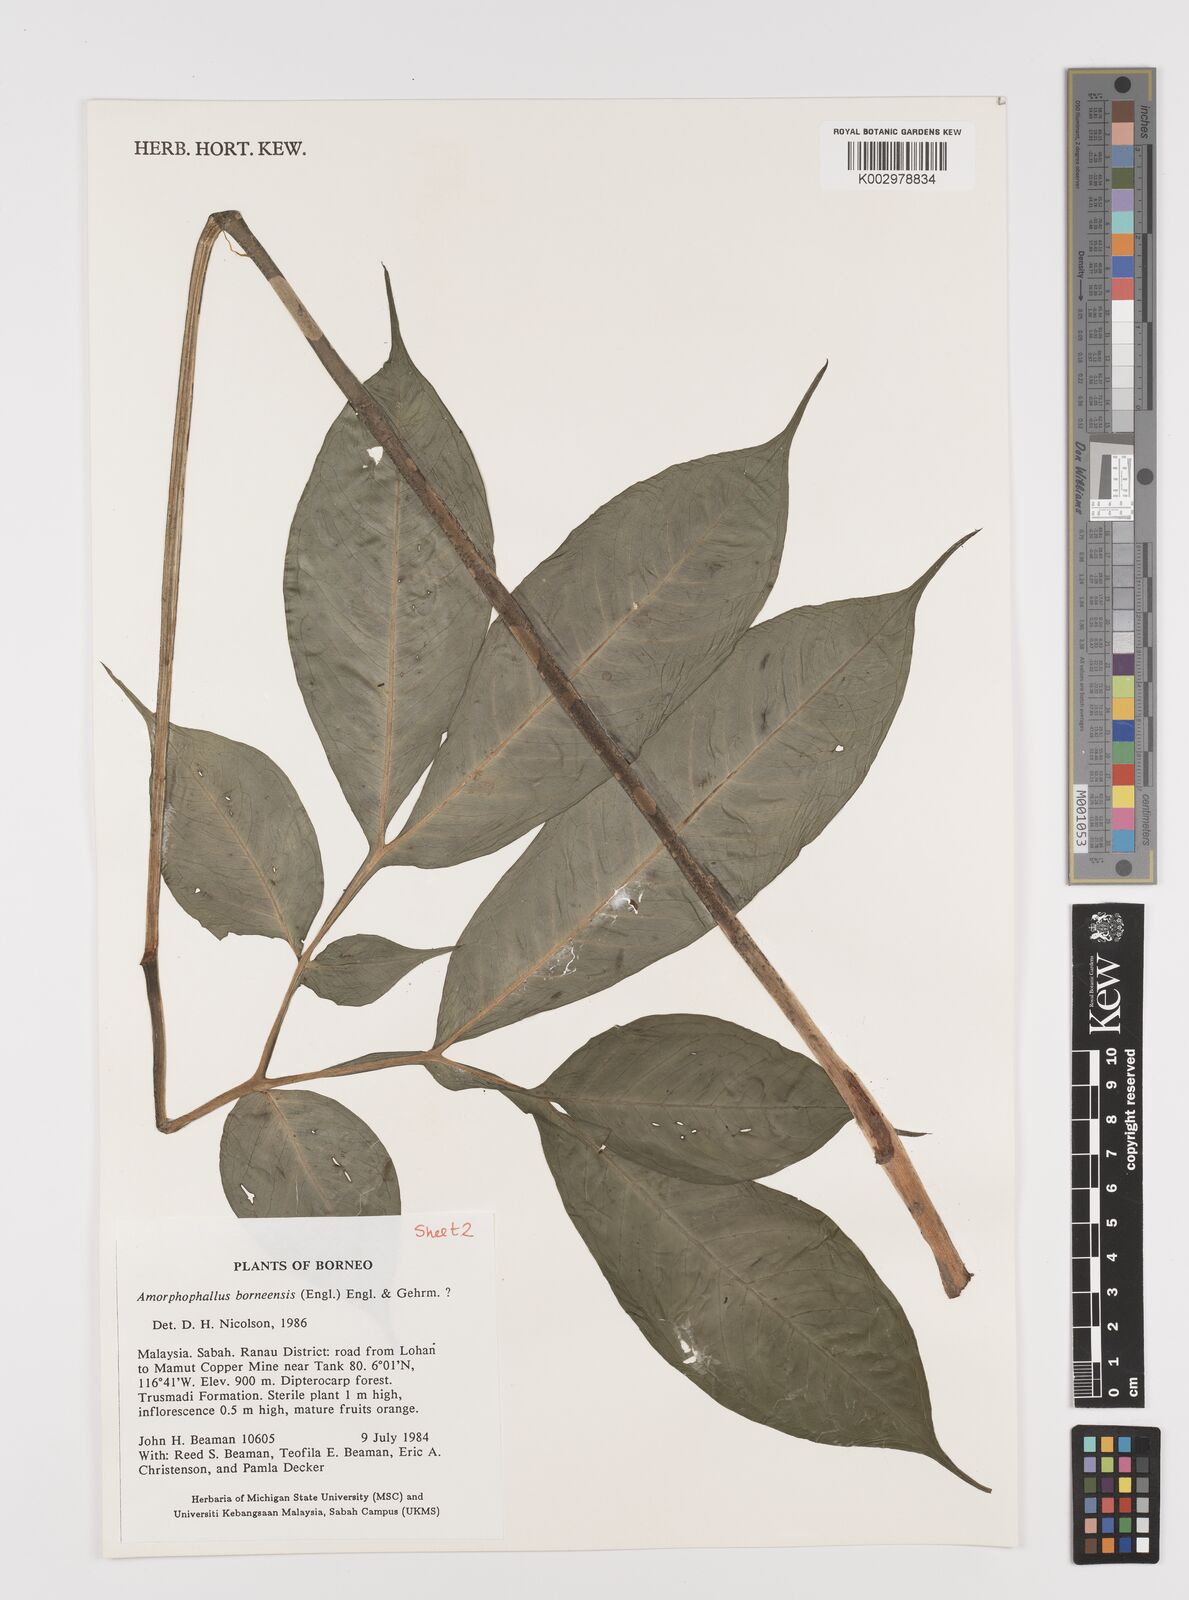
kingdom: Plantae
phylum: Tracheophyta
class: Liliopsida
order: Alismatales
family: Araceae
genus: Amorphophallus
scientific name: Amorphophallus
